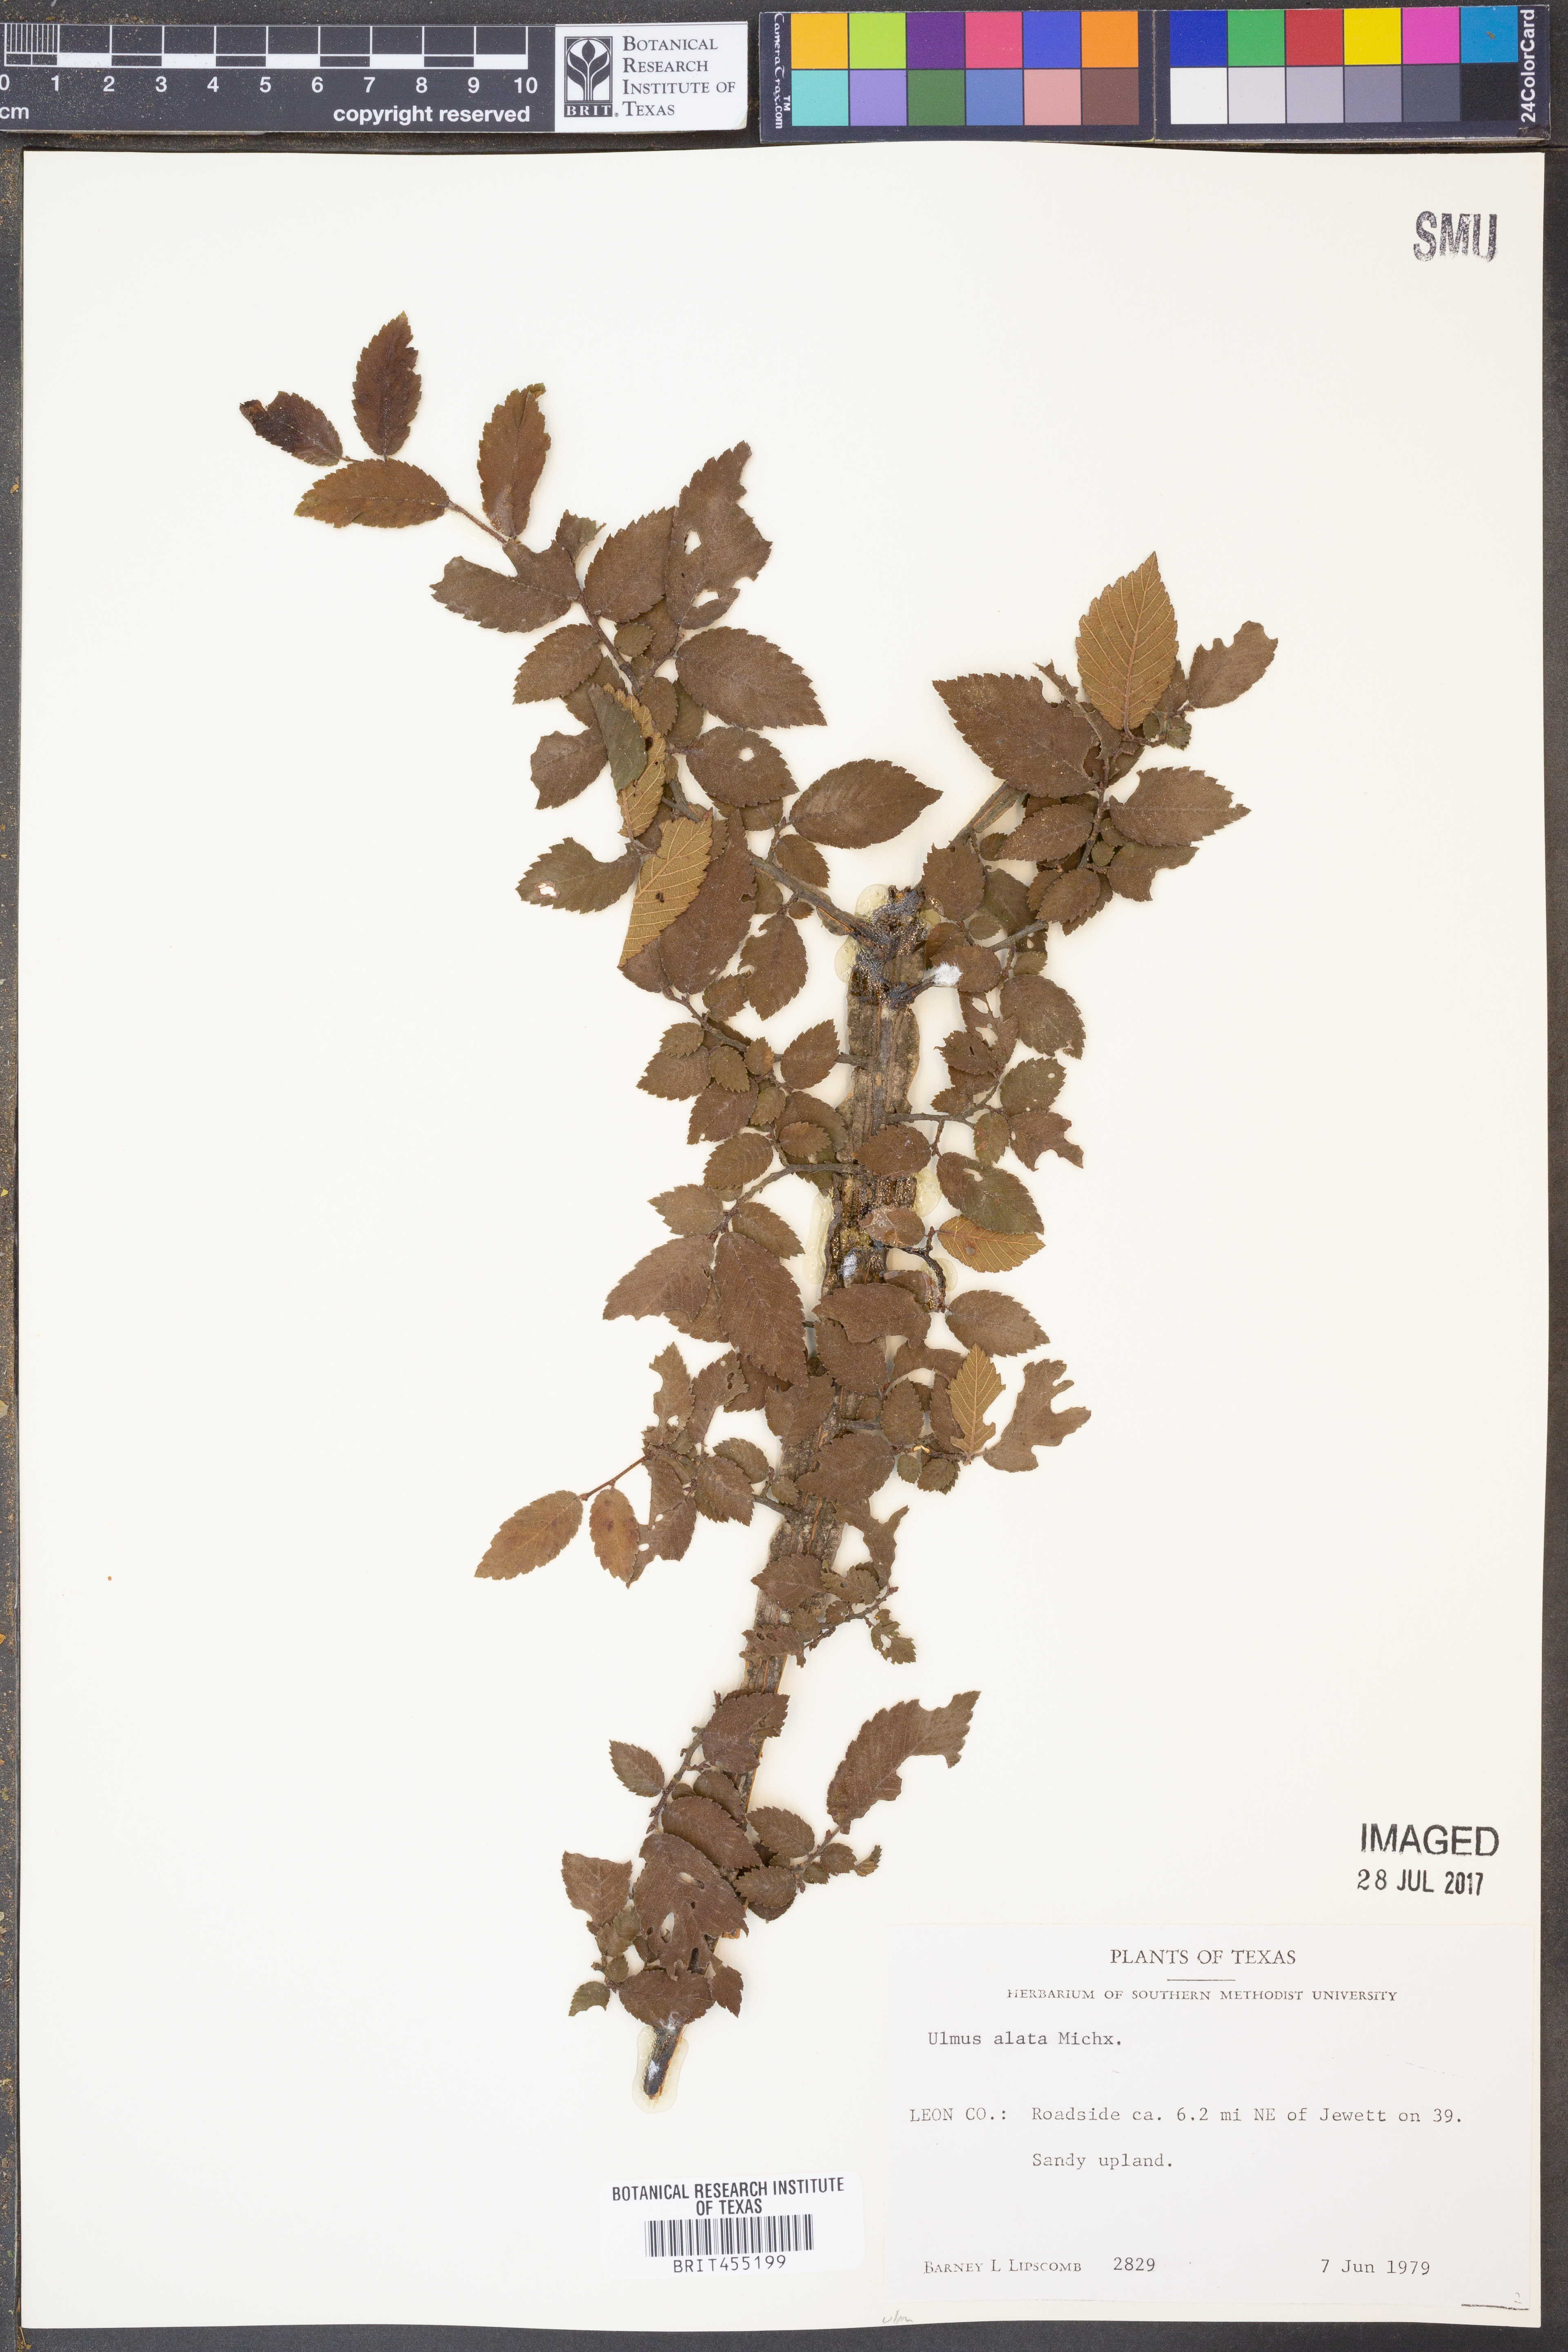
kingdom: Plantae
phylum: Tracheophyta
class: Magnoliopsida
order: Rosales
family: Ulmaceae
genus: Ulmus
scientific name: Ulmus alata
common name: Winged elm
